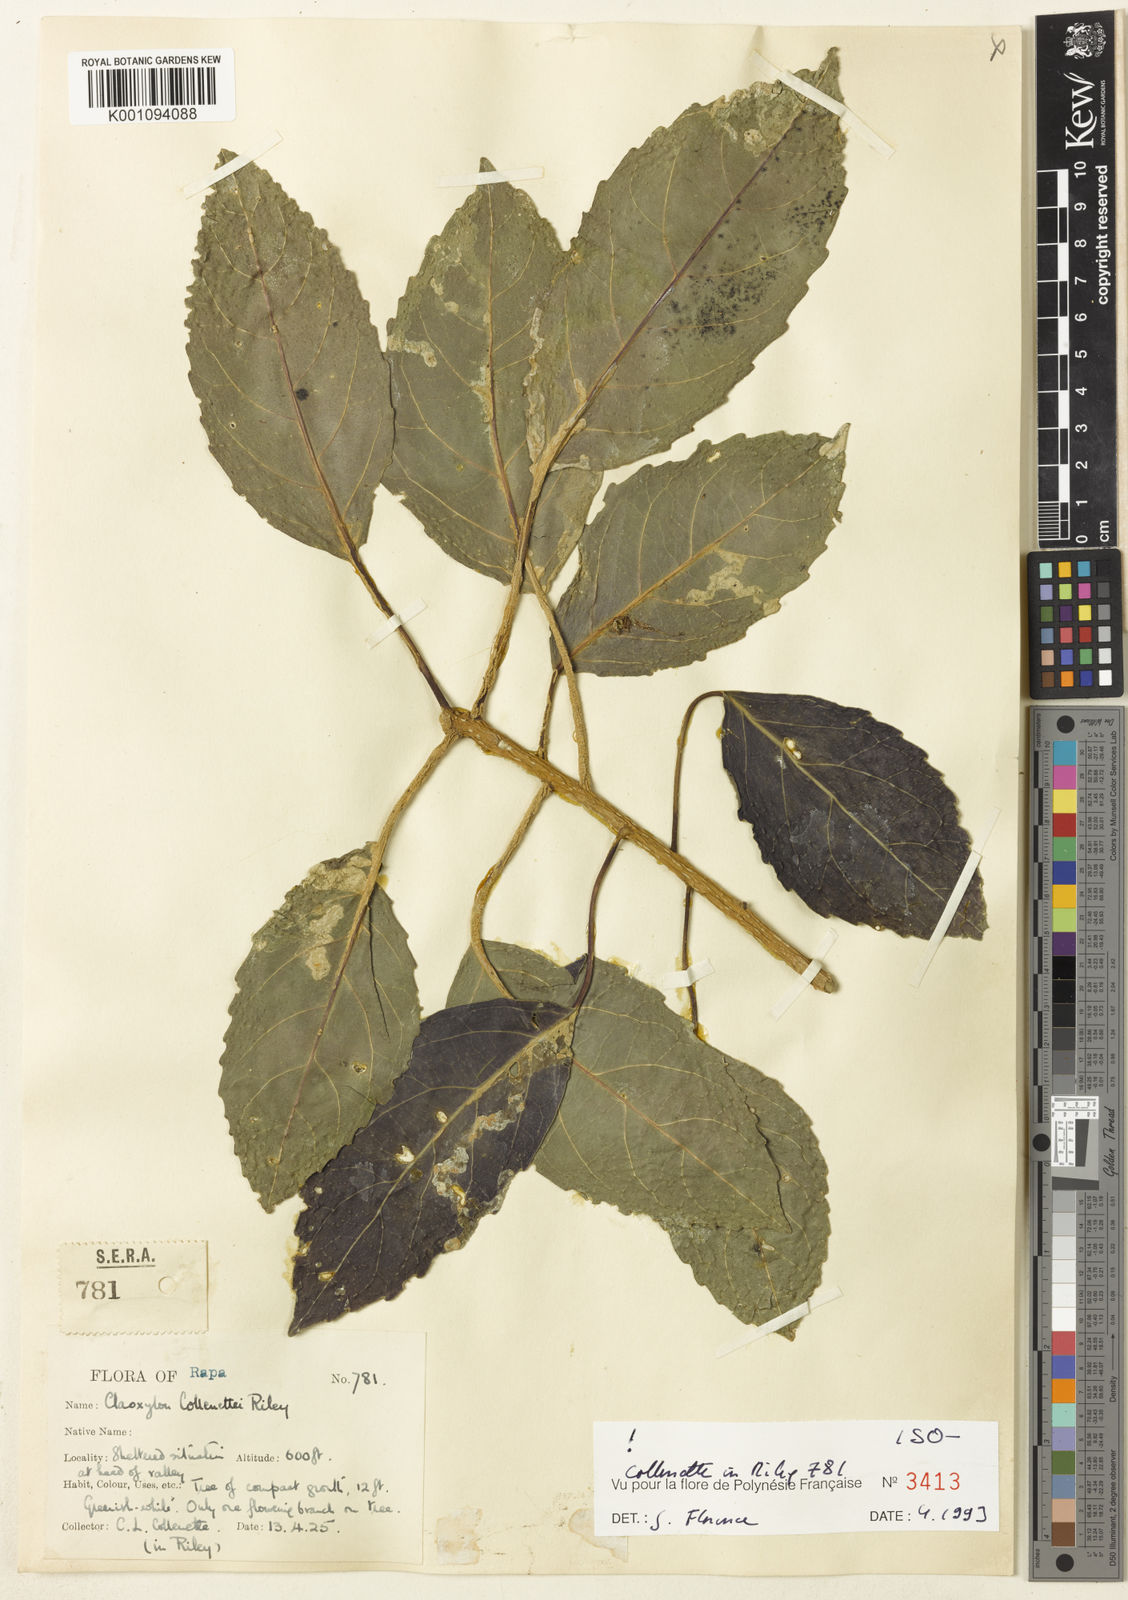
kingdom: Plantae
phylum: Tracheophyta
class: Magnoliopsida
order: Malpighiales
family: Euphorbiaceae
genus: Claoxylon
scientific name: Claoxylon collenettei
